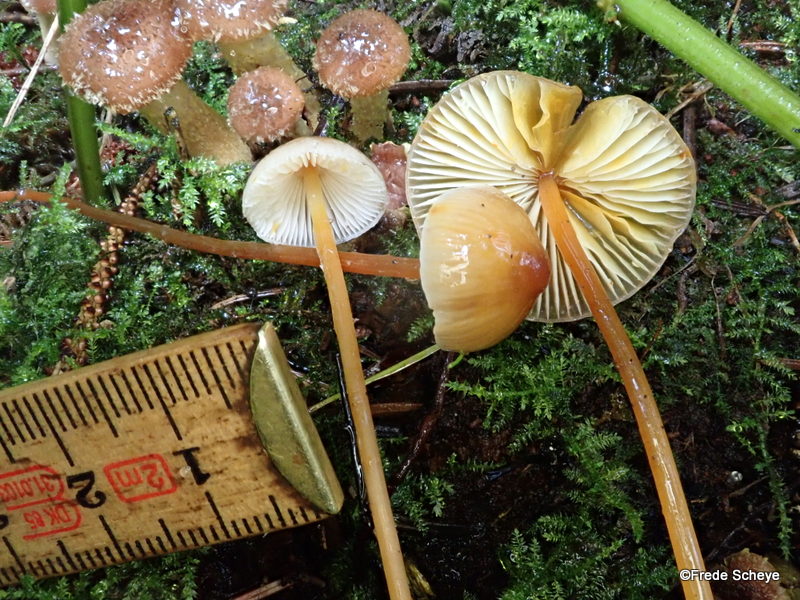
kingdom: Fungi
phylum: Basidiomycota
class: Agaricomycetes
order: Agaricales
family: Mycenaceae
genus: Mycena
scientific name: Mycena crocata
